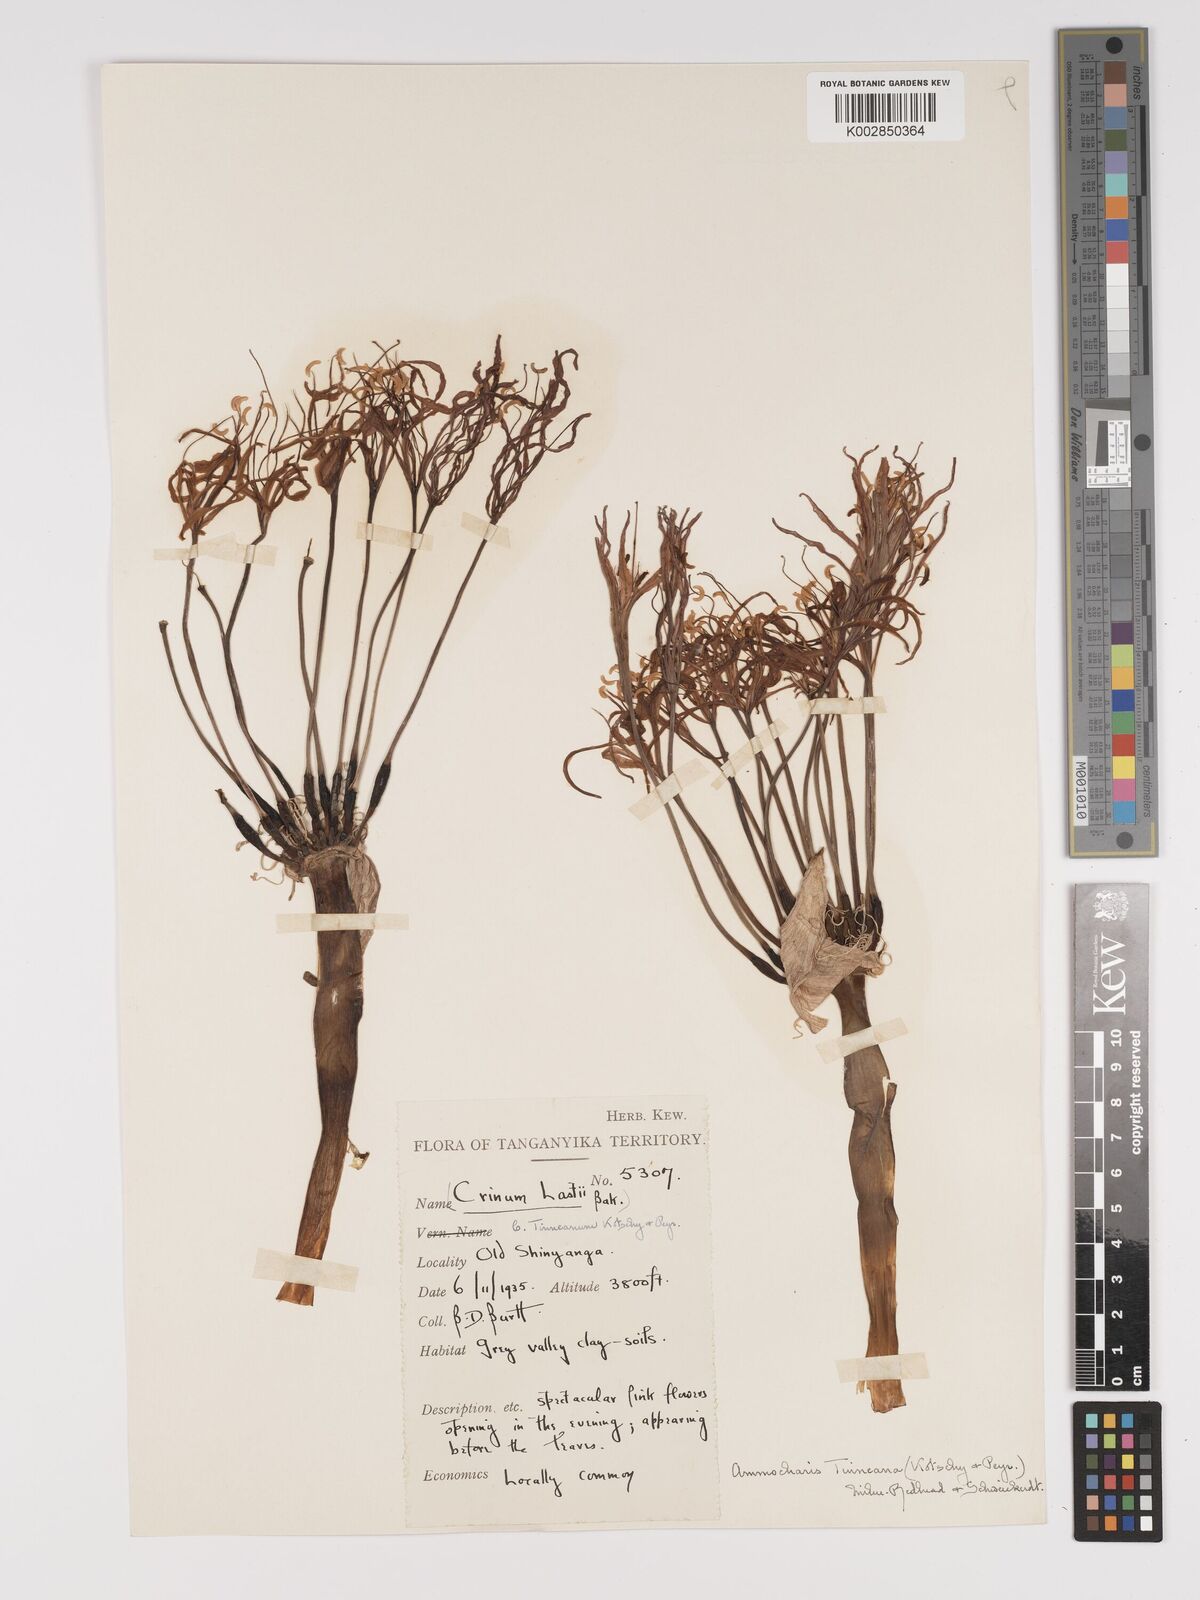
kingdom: Plantae
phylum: Tracheophyta
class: Liliopsida
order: Asparagales
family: Amaryllidaceae
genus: Ammocharis
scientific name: Ammocharis tinneana
